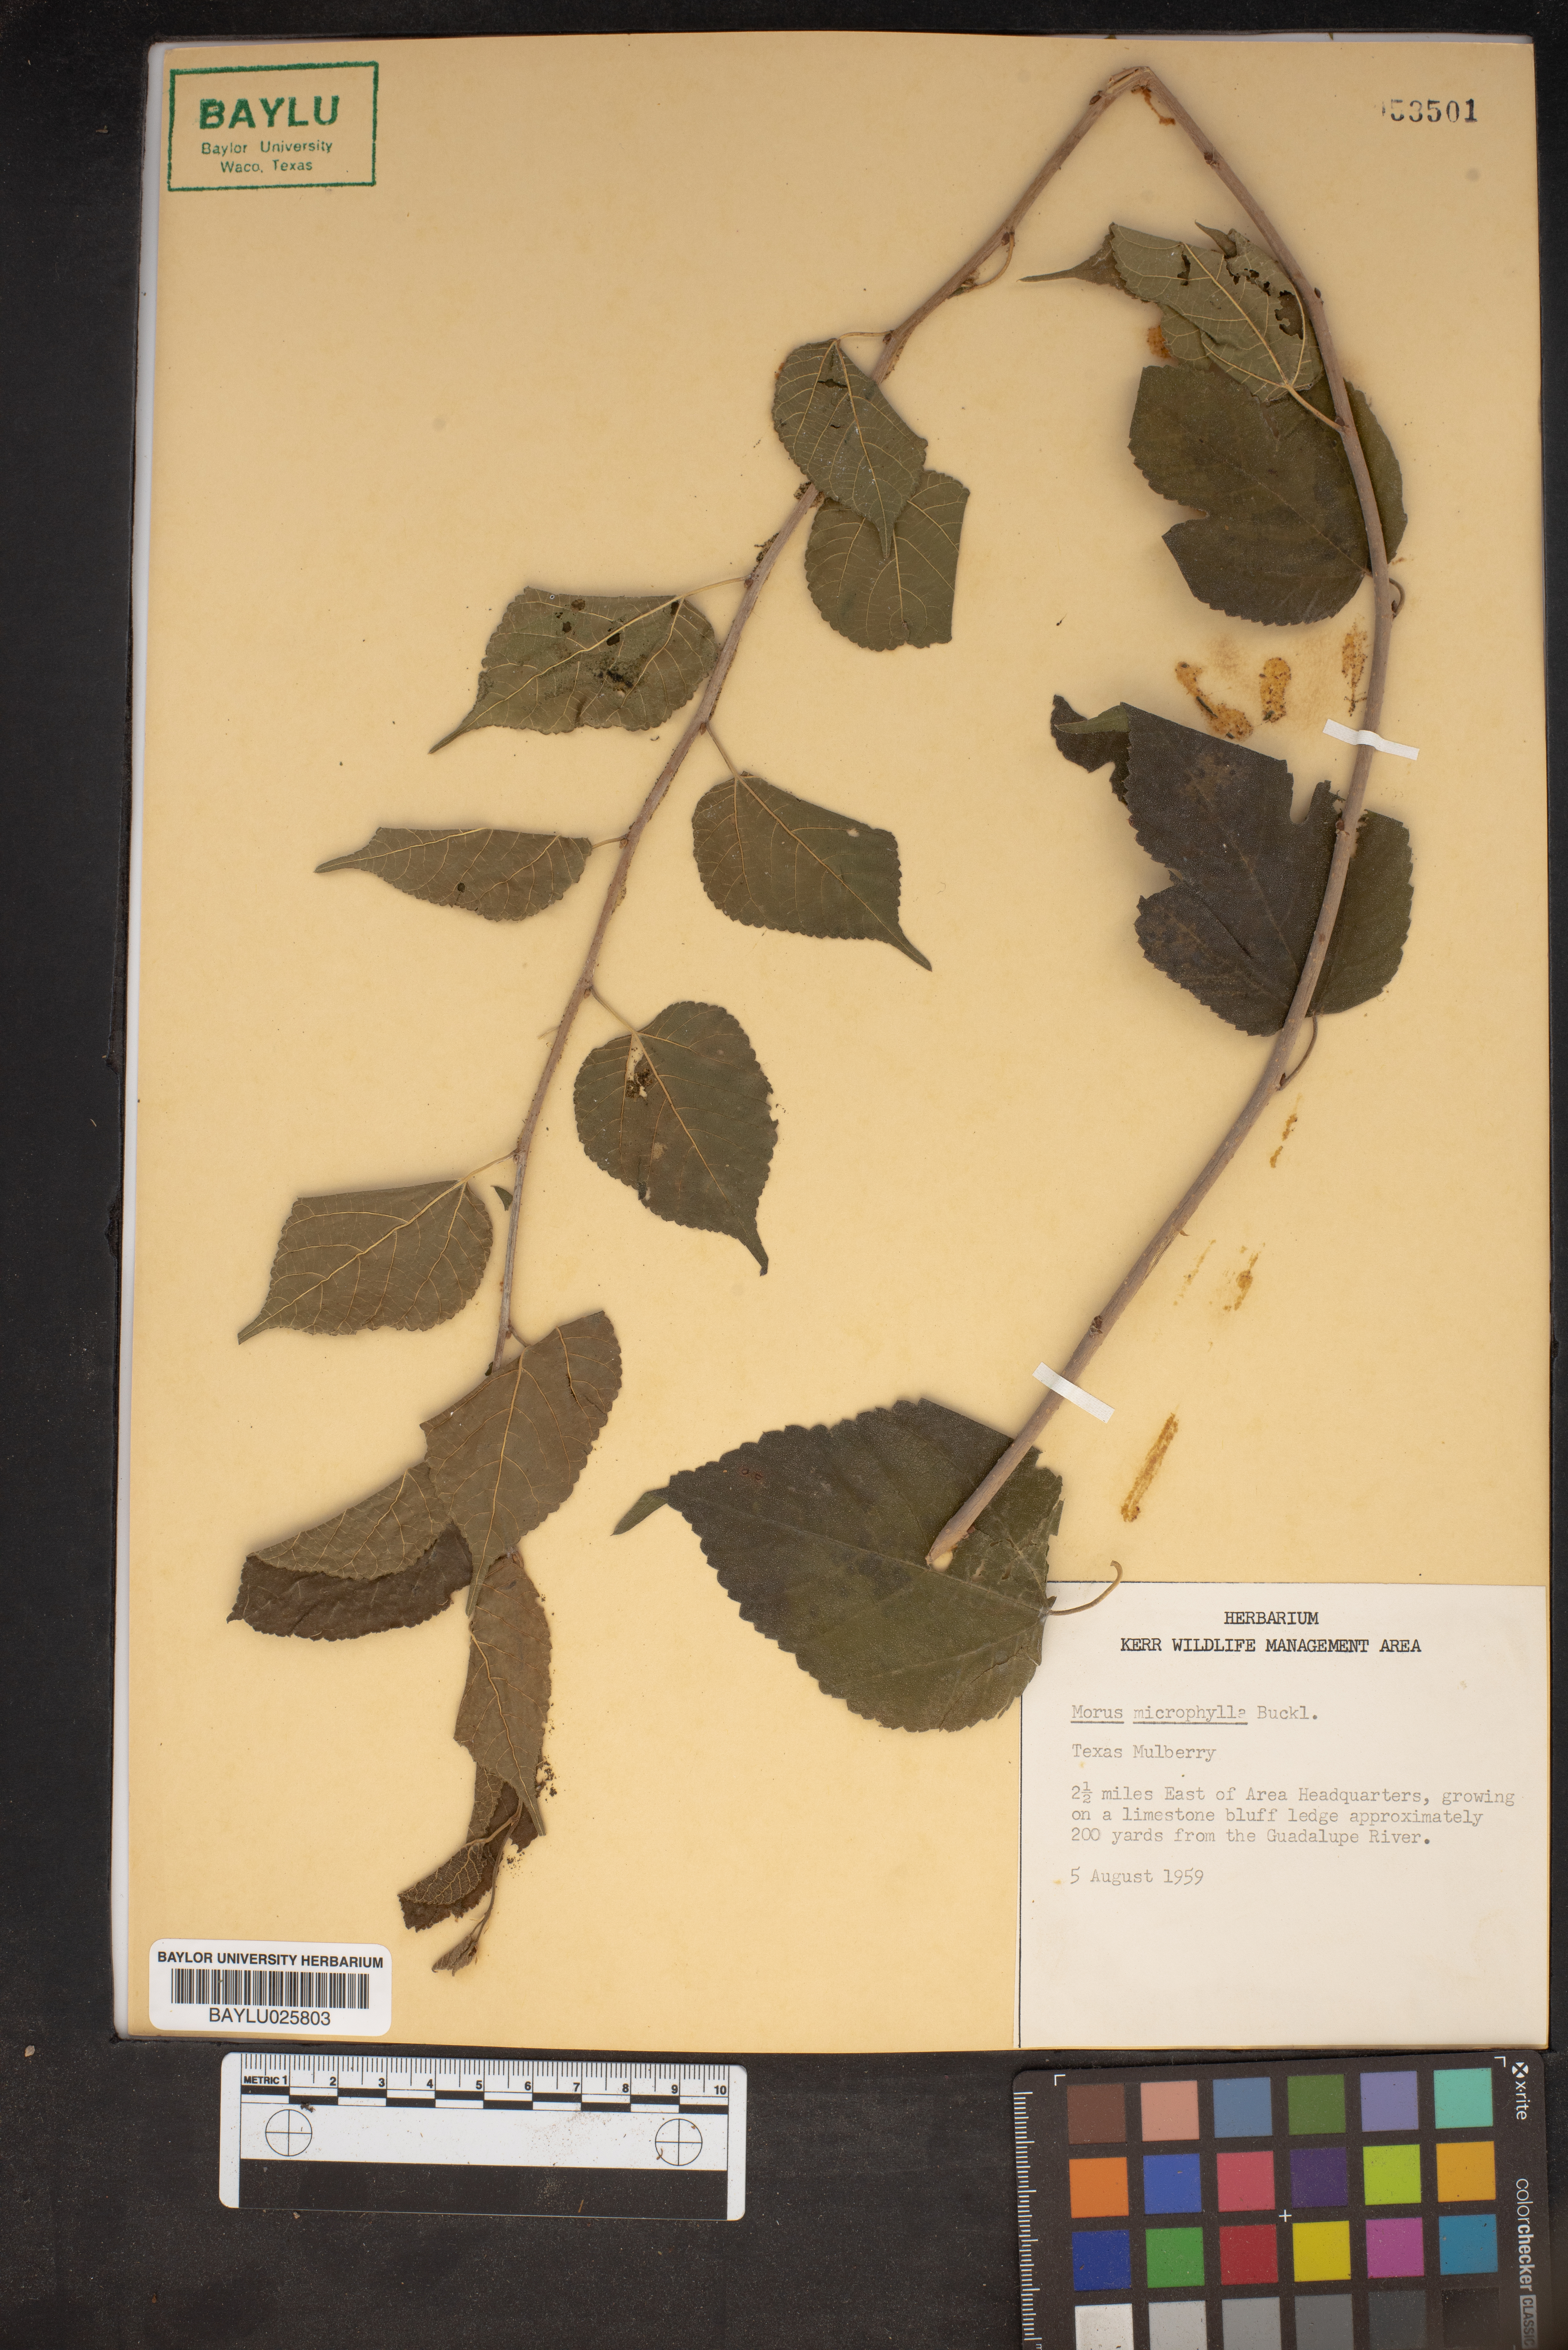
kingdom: Plantae
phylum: Tracheophyta
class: Magnoliopsida
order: Rosales
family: Moraceae
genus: Morus
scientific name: Morus microphylla
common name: Mexican mulberry
